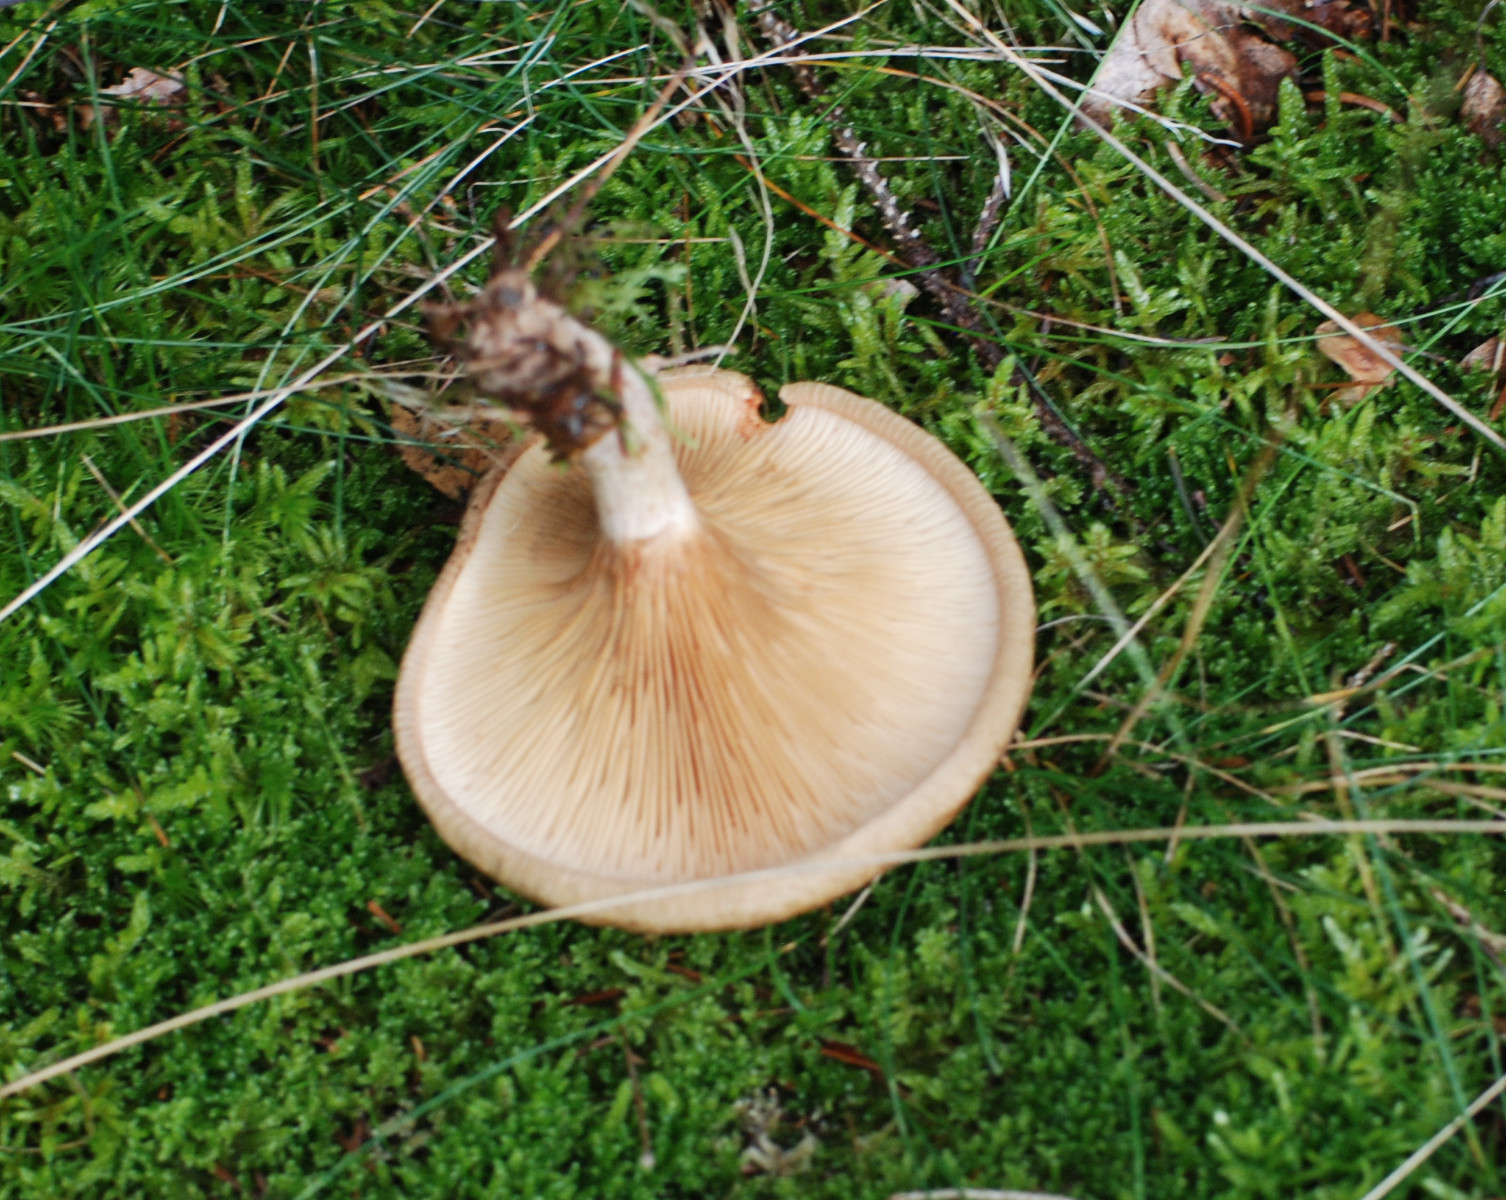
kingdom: Fungi
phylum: Basidiomycota
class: Agaricomycetes
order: Boletales
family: Paxillaceae
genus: Paxillus
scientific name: Paxillus involutus
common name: almindelig netbladhat
